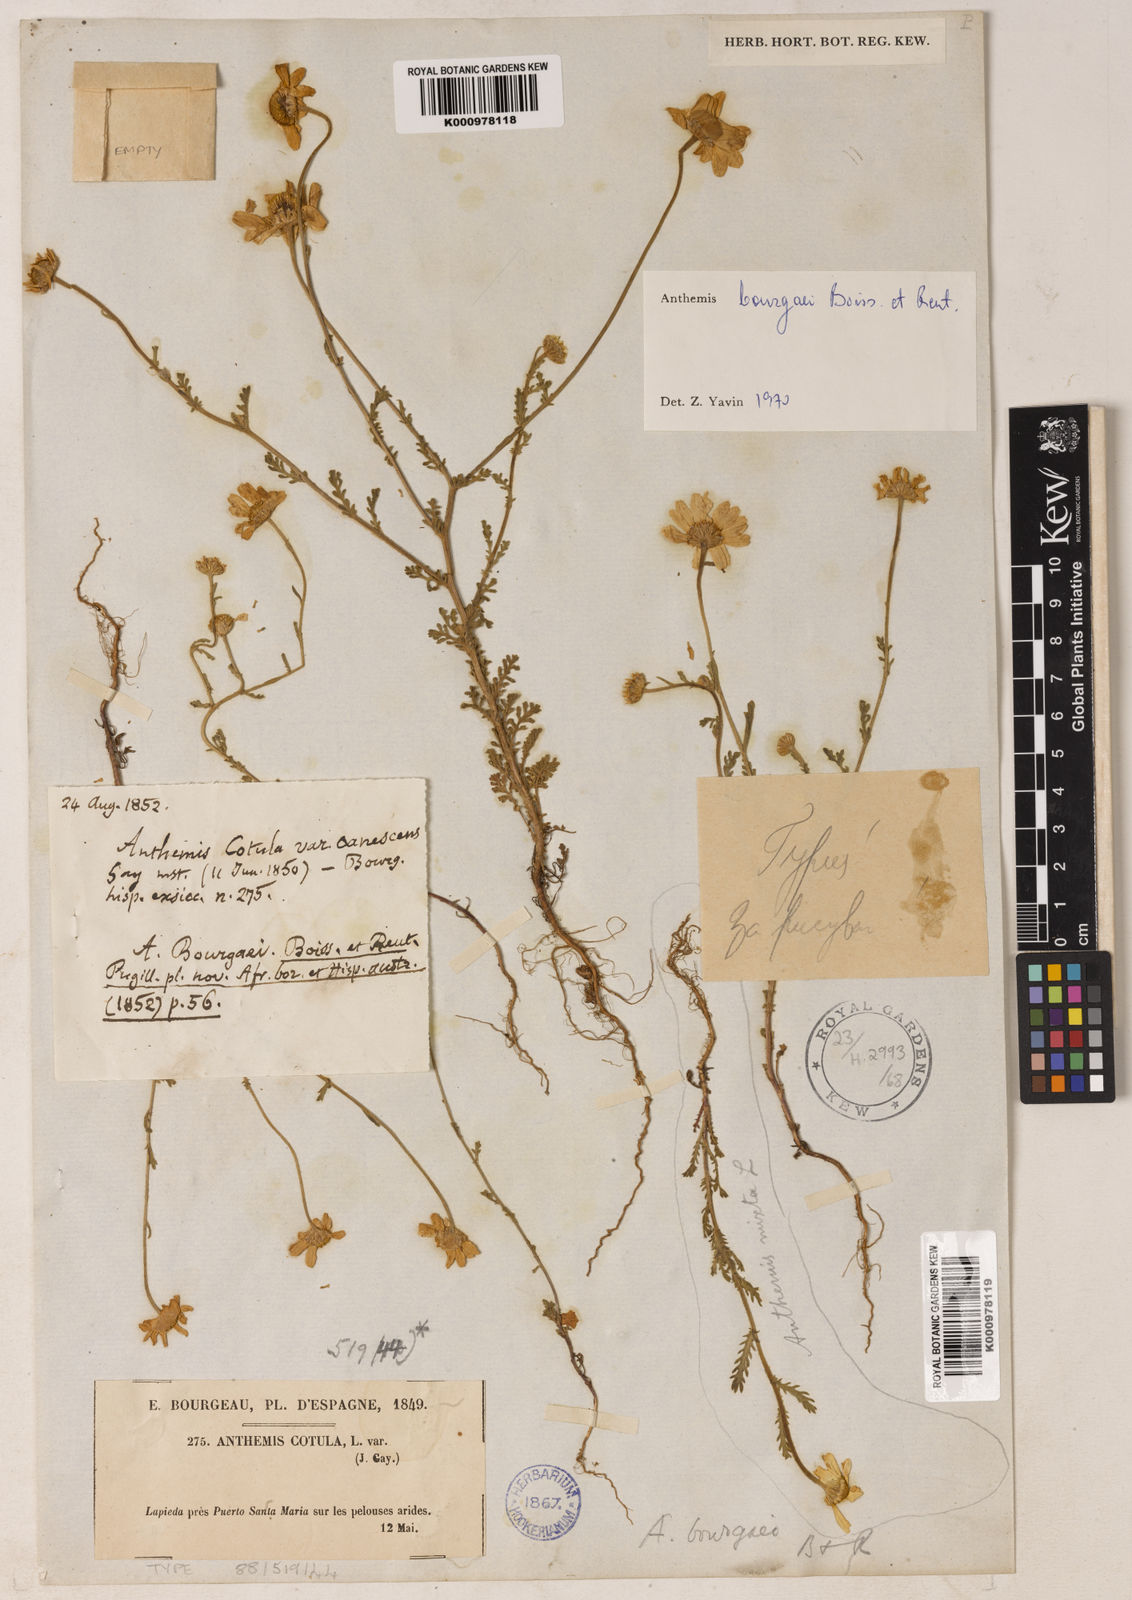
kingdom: Plantae
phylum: Tracheophyta
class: Magnoliopsida
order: Asterales
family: Asteraceae
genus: Anthemis
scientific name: Anthemis
